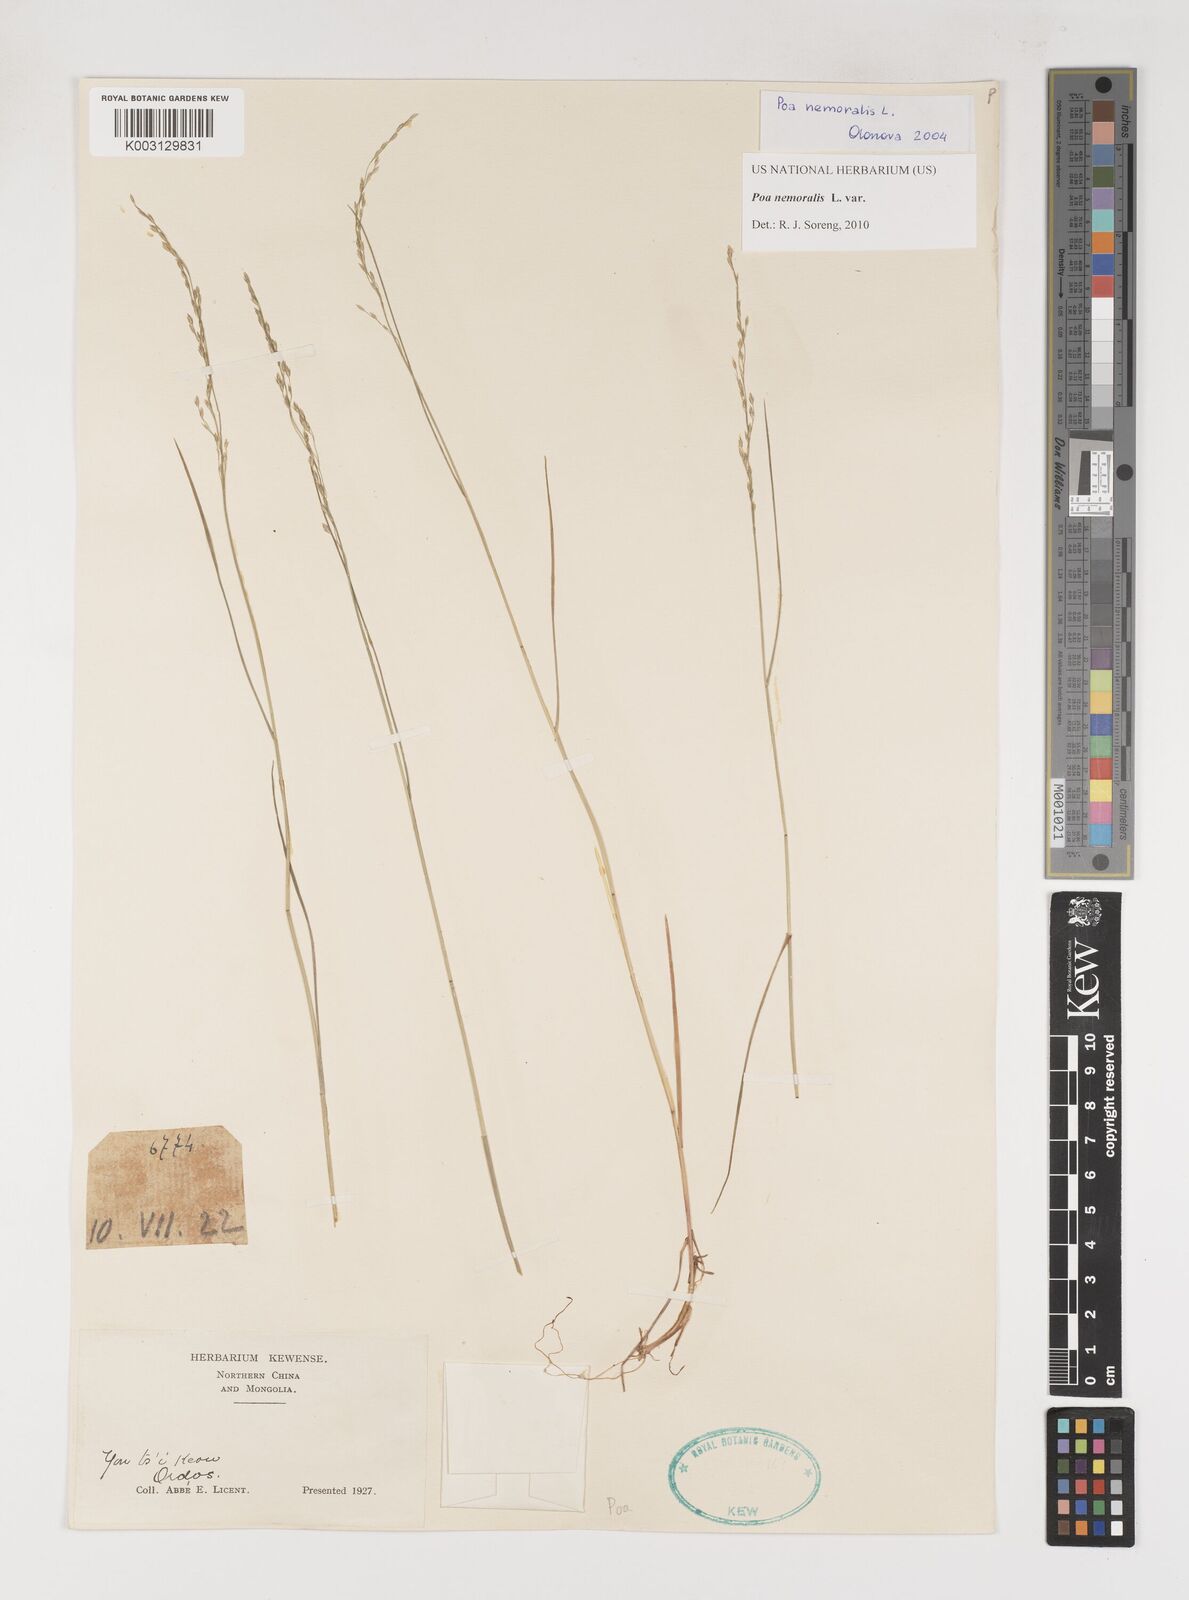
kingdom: Plantae
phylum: Tracheophyta
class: Liliopsida
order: Poales
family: Poaceae
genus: Poa
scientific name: Poa nemoralis
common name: Wood bluegrass
